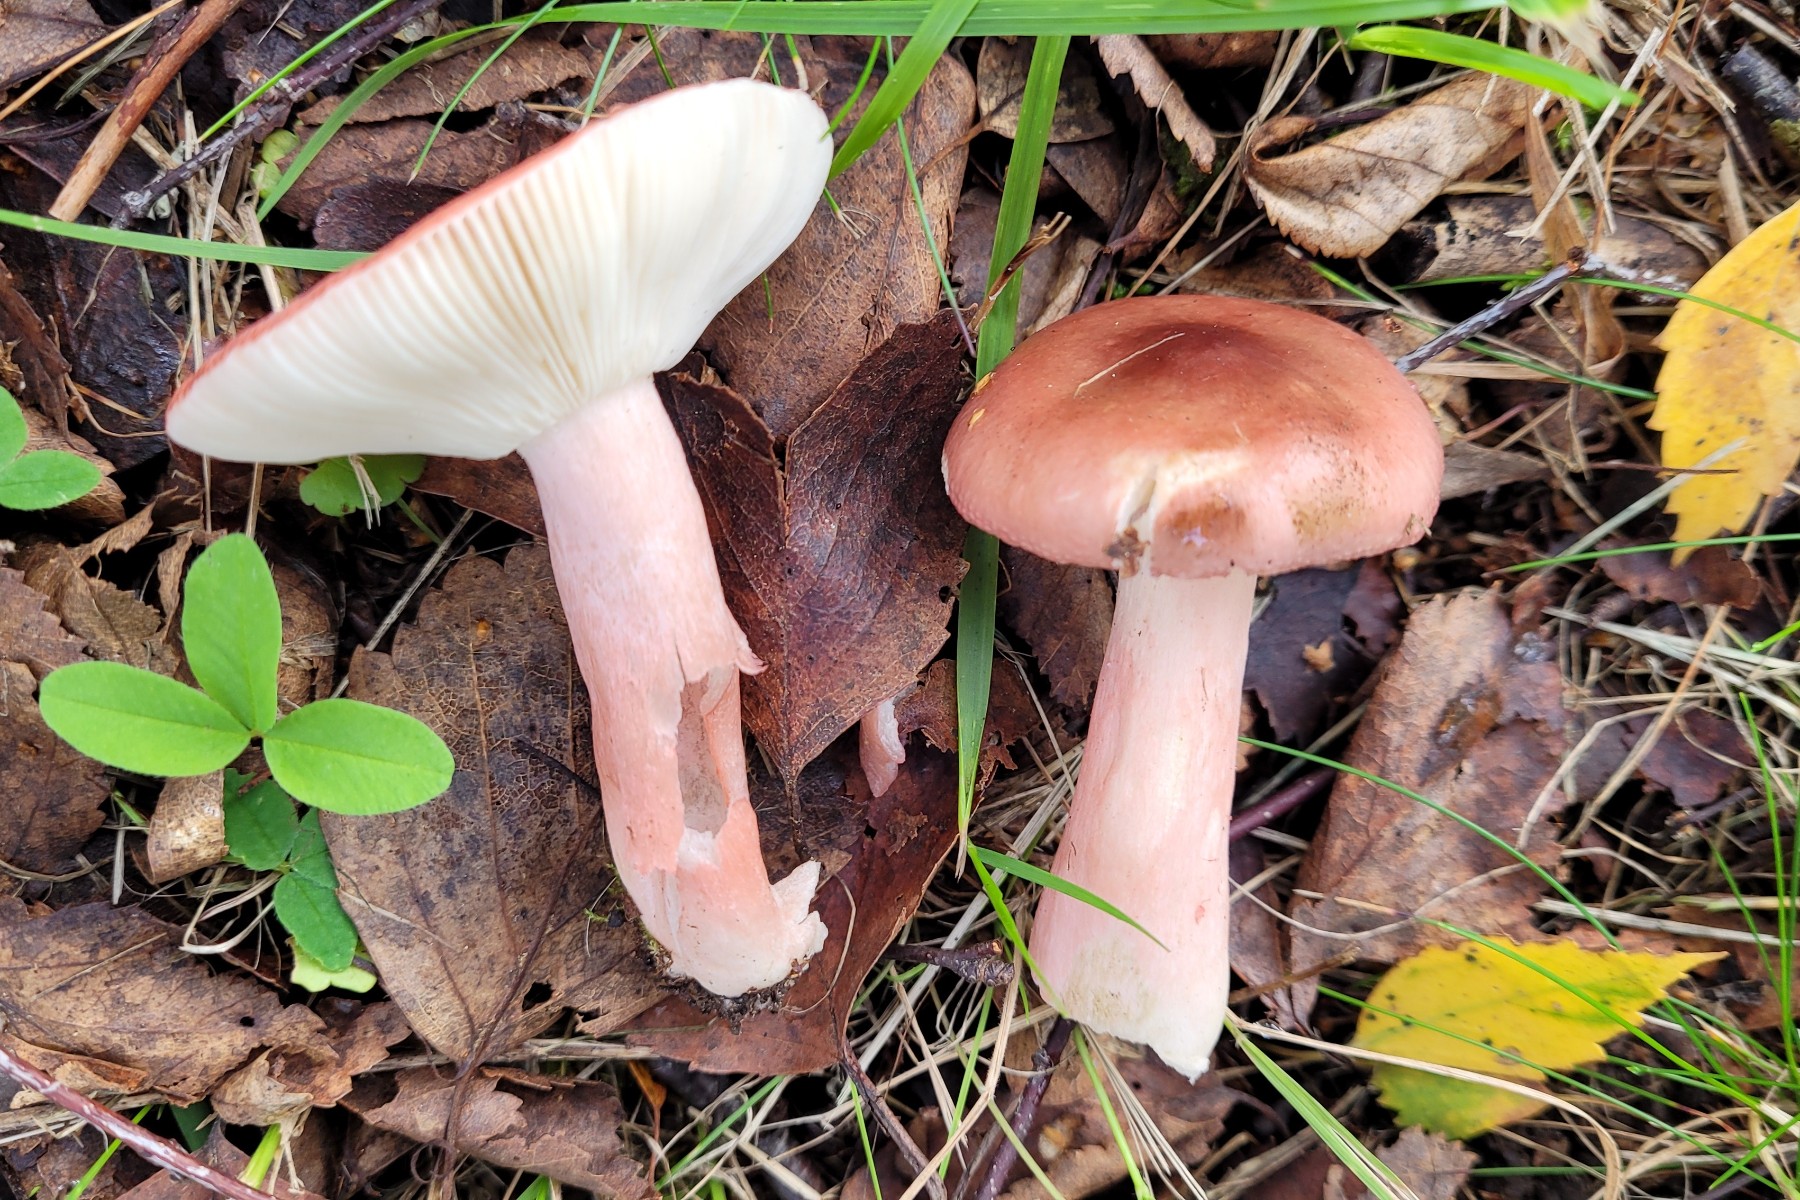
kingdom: Fungi
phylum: Basidiomycota
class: Agaricomycetes
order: Russulales
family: Russulaceae
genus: Russula
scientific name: Russula gracillima
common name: slank skørhat
